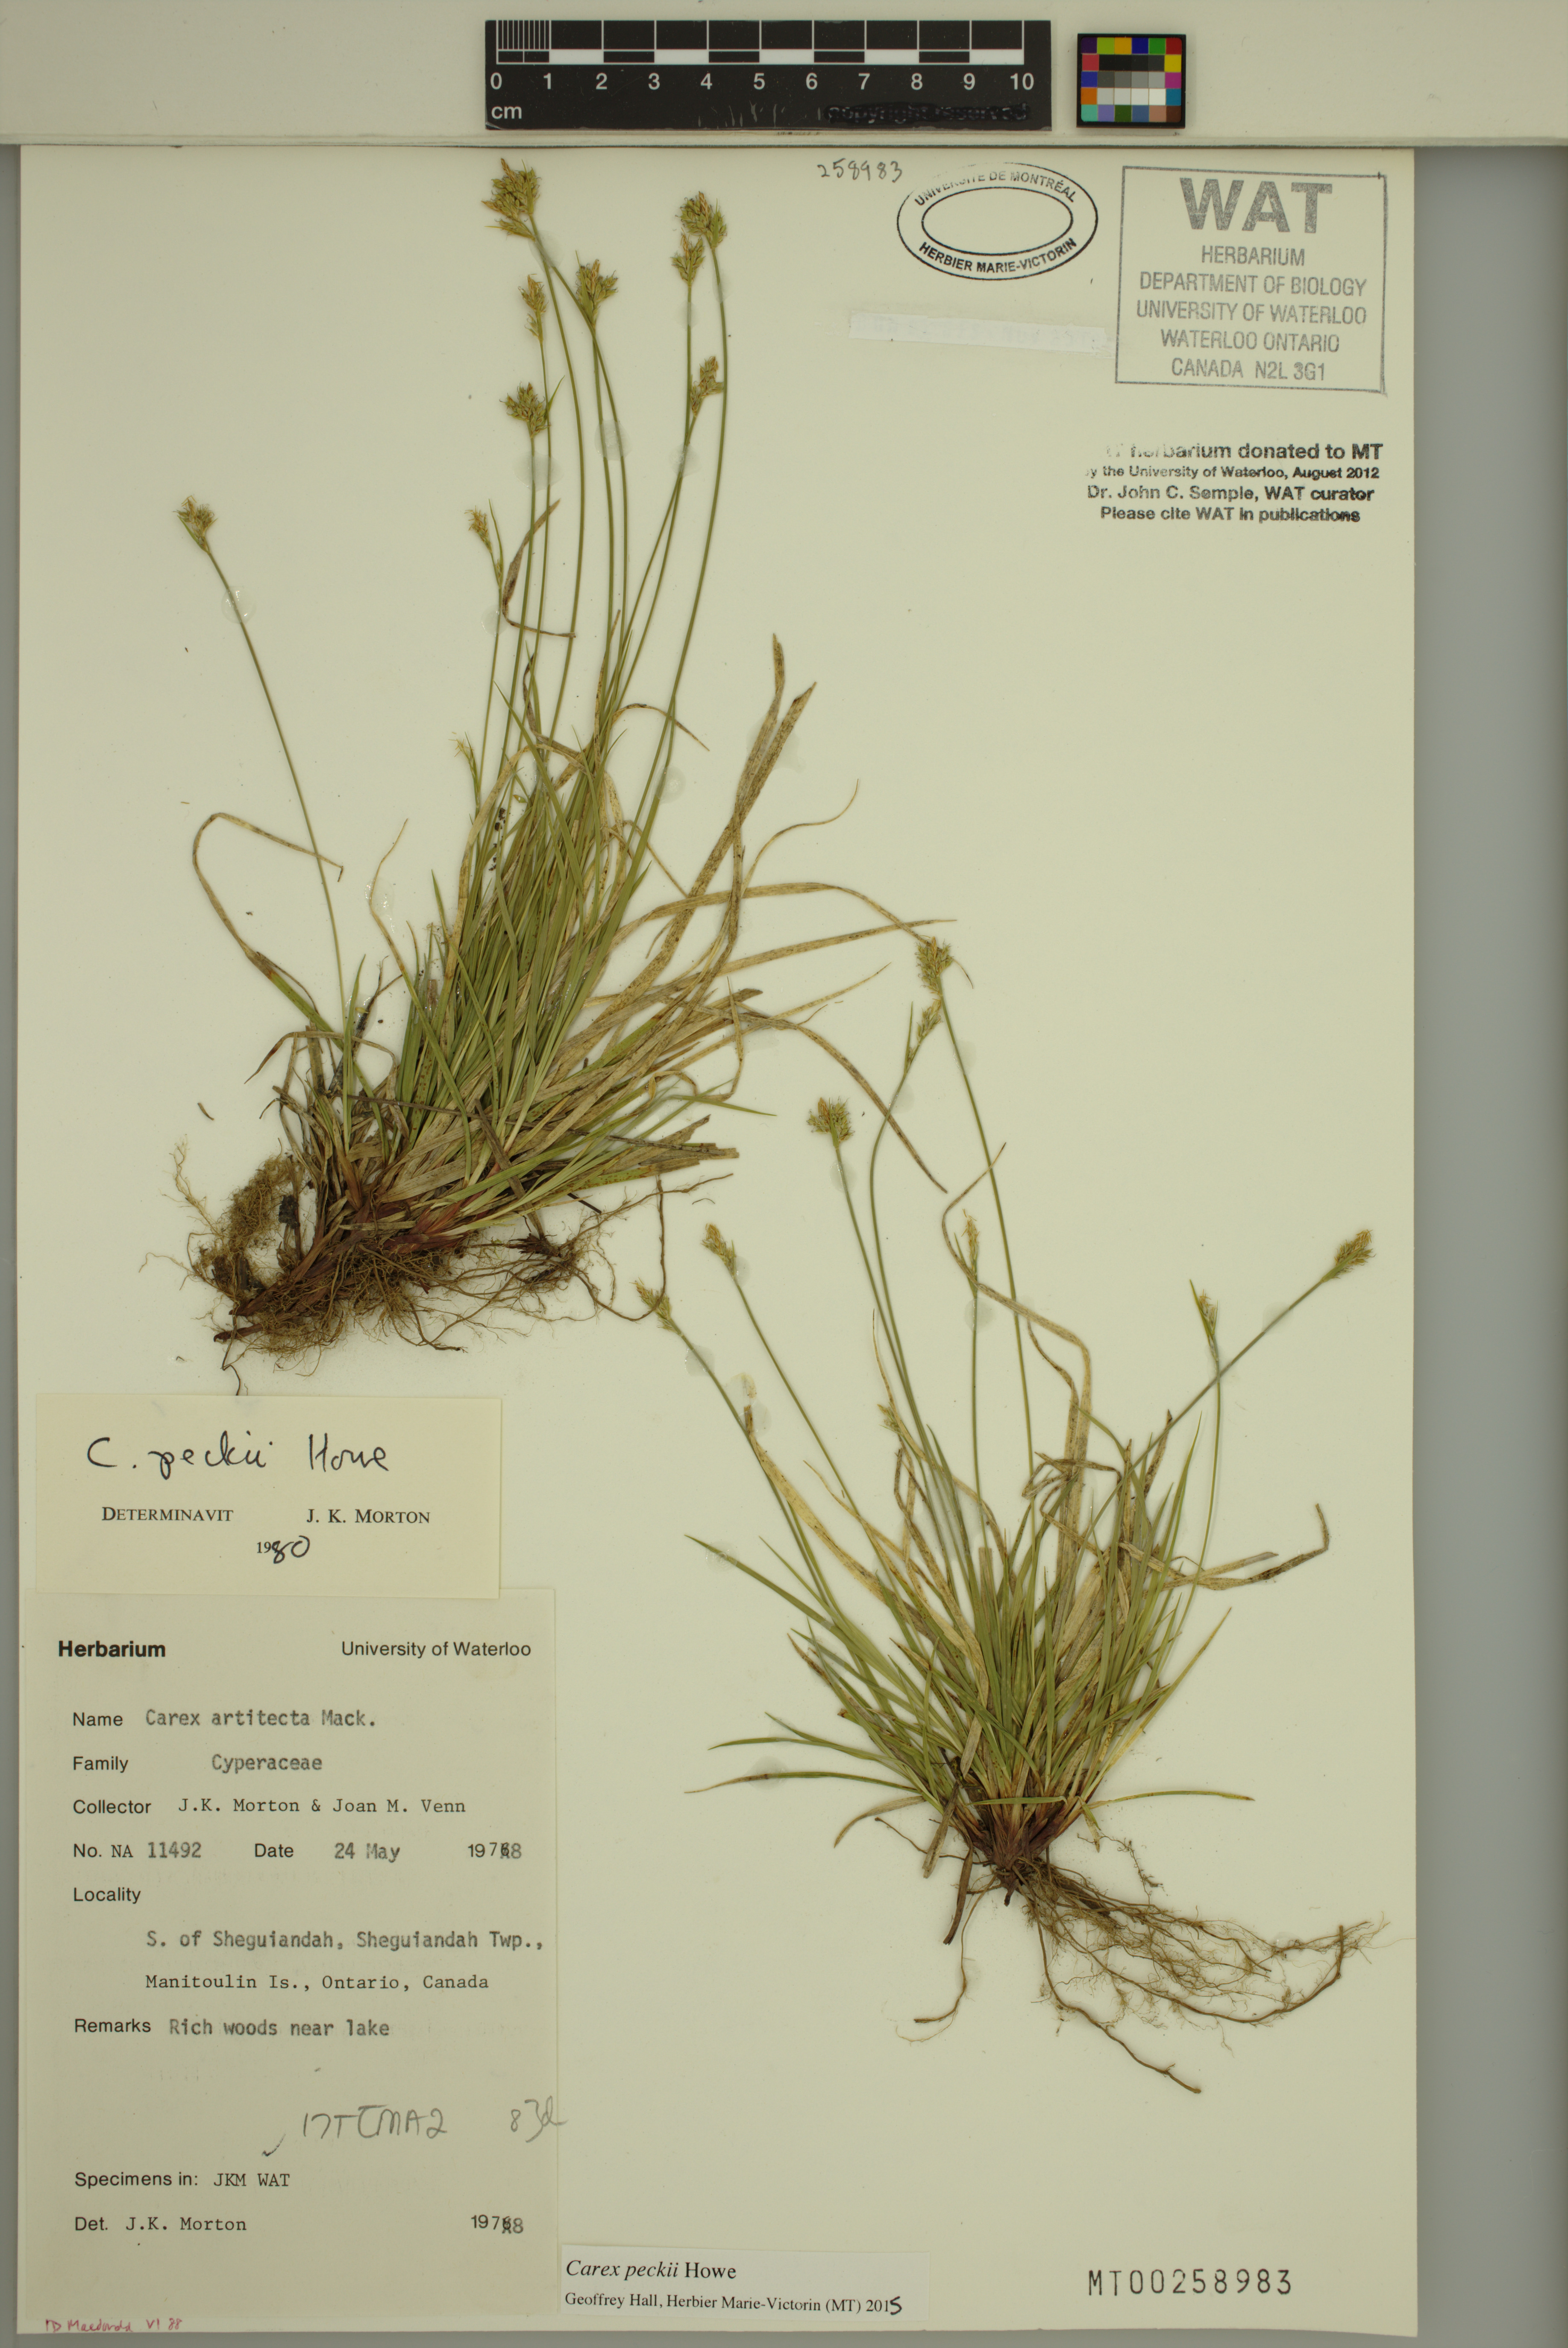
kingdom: Plantae
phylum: Tracheophyta
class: Liliopsida
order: Poales
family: Cyperaceae
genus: Carex
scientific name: Carex peckii
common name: Peck's oak sedge
